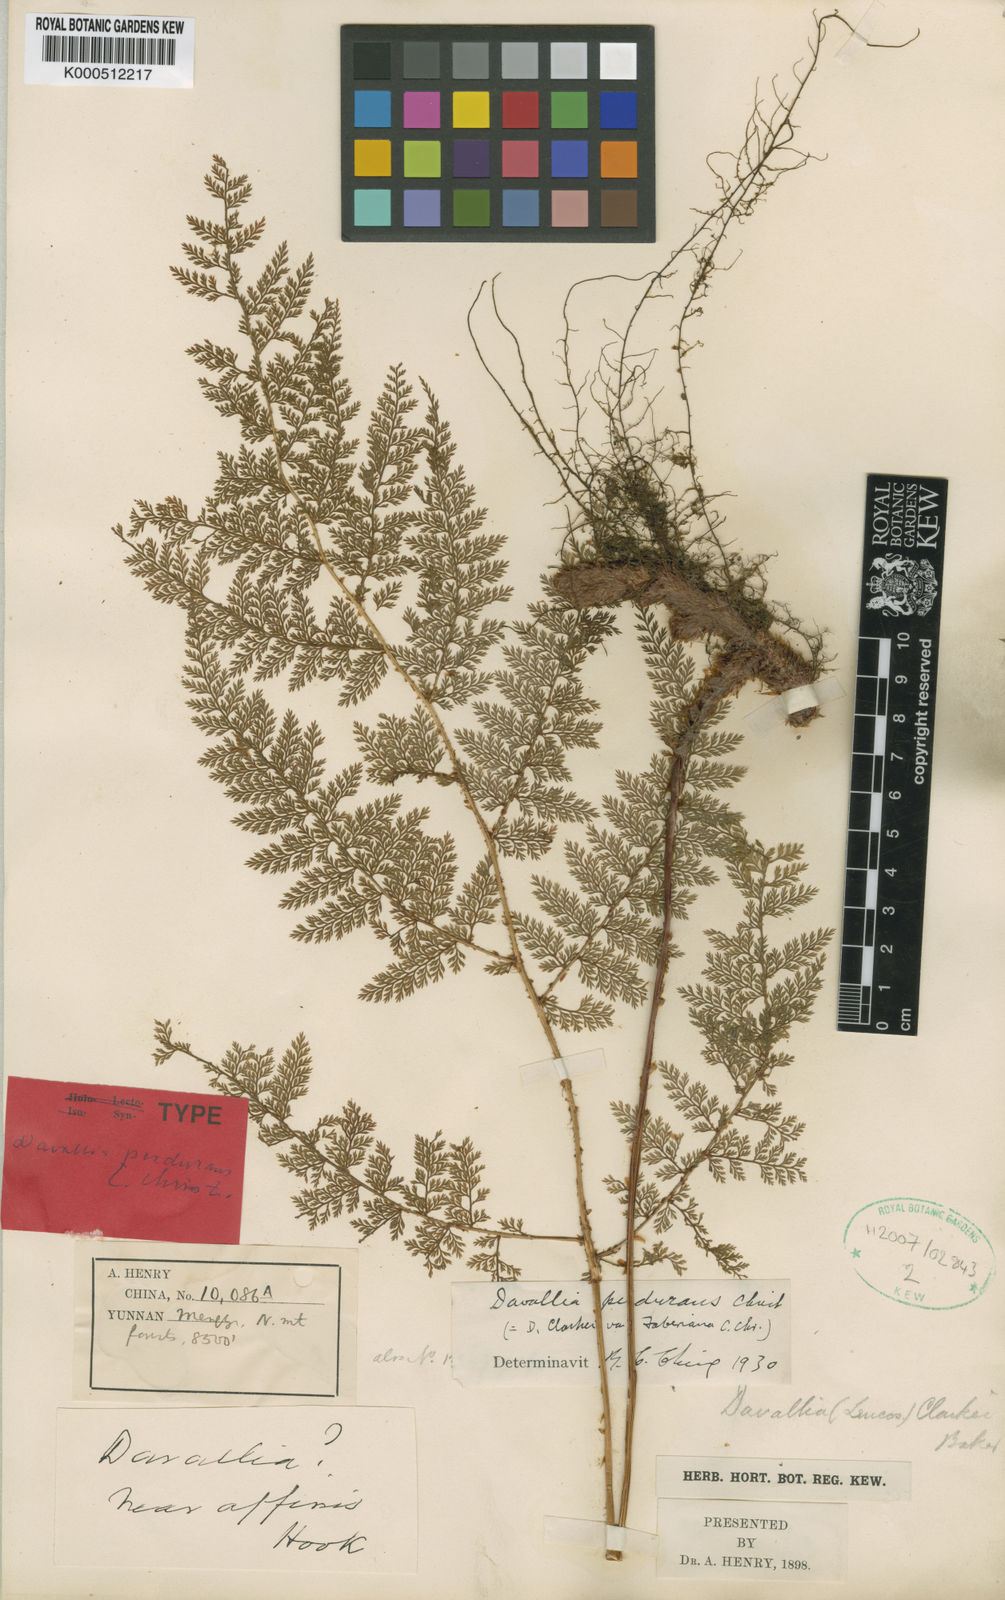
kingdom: Plantae
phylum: Tracheophyta
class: Polypodiopsida
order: Polypodiales
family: Davalliaceae
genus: Davallia
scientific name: Davallia hookeri
